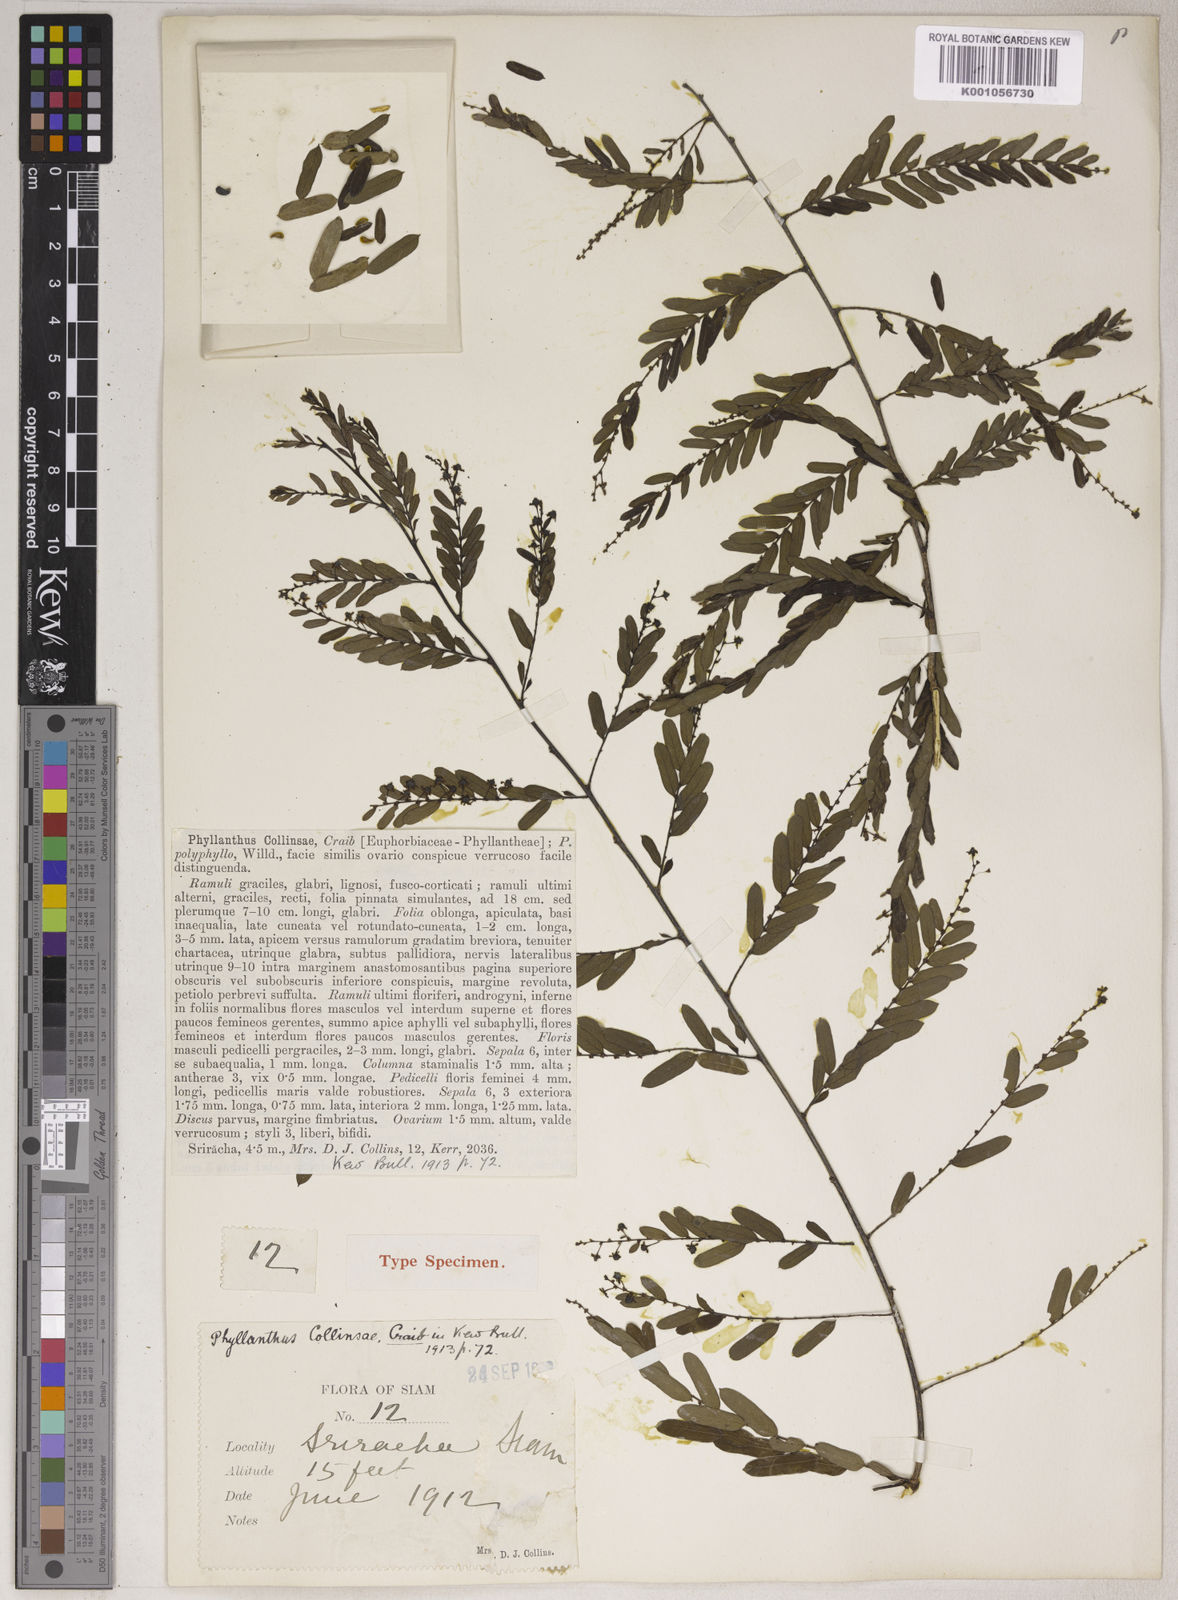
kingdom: Plantae
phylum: Tracheophyta
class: Magnoliopsida
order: Malpighiales
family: Phyllanthaceae
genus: Phyllanthus
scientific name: Phyllanthus collinsiae
